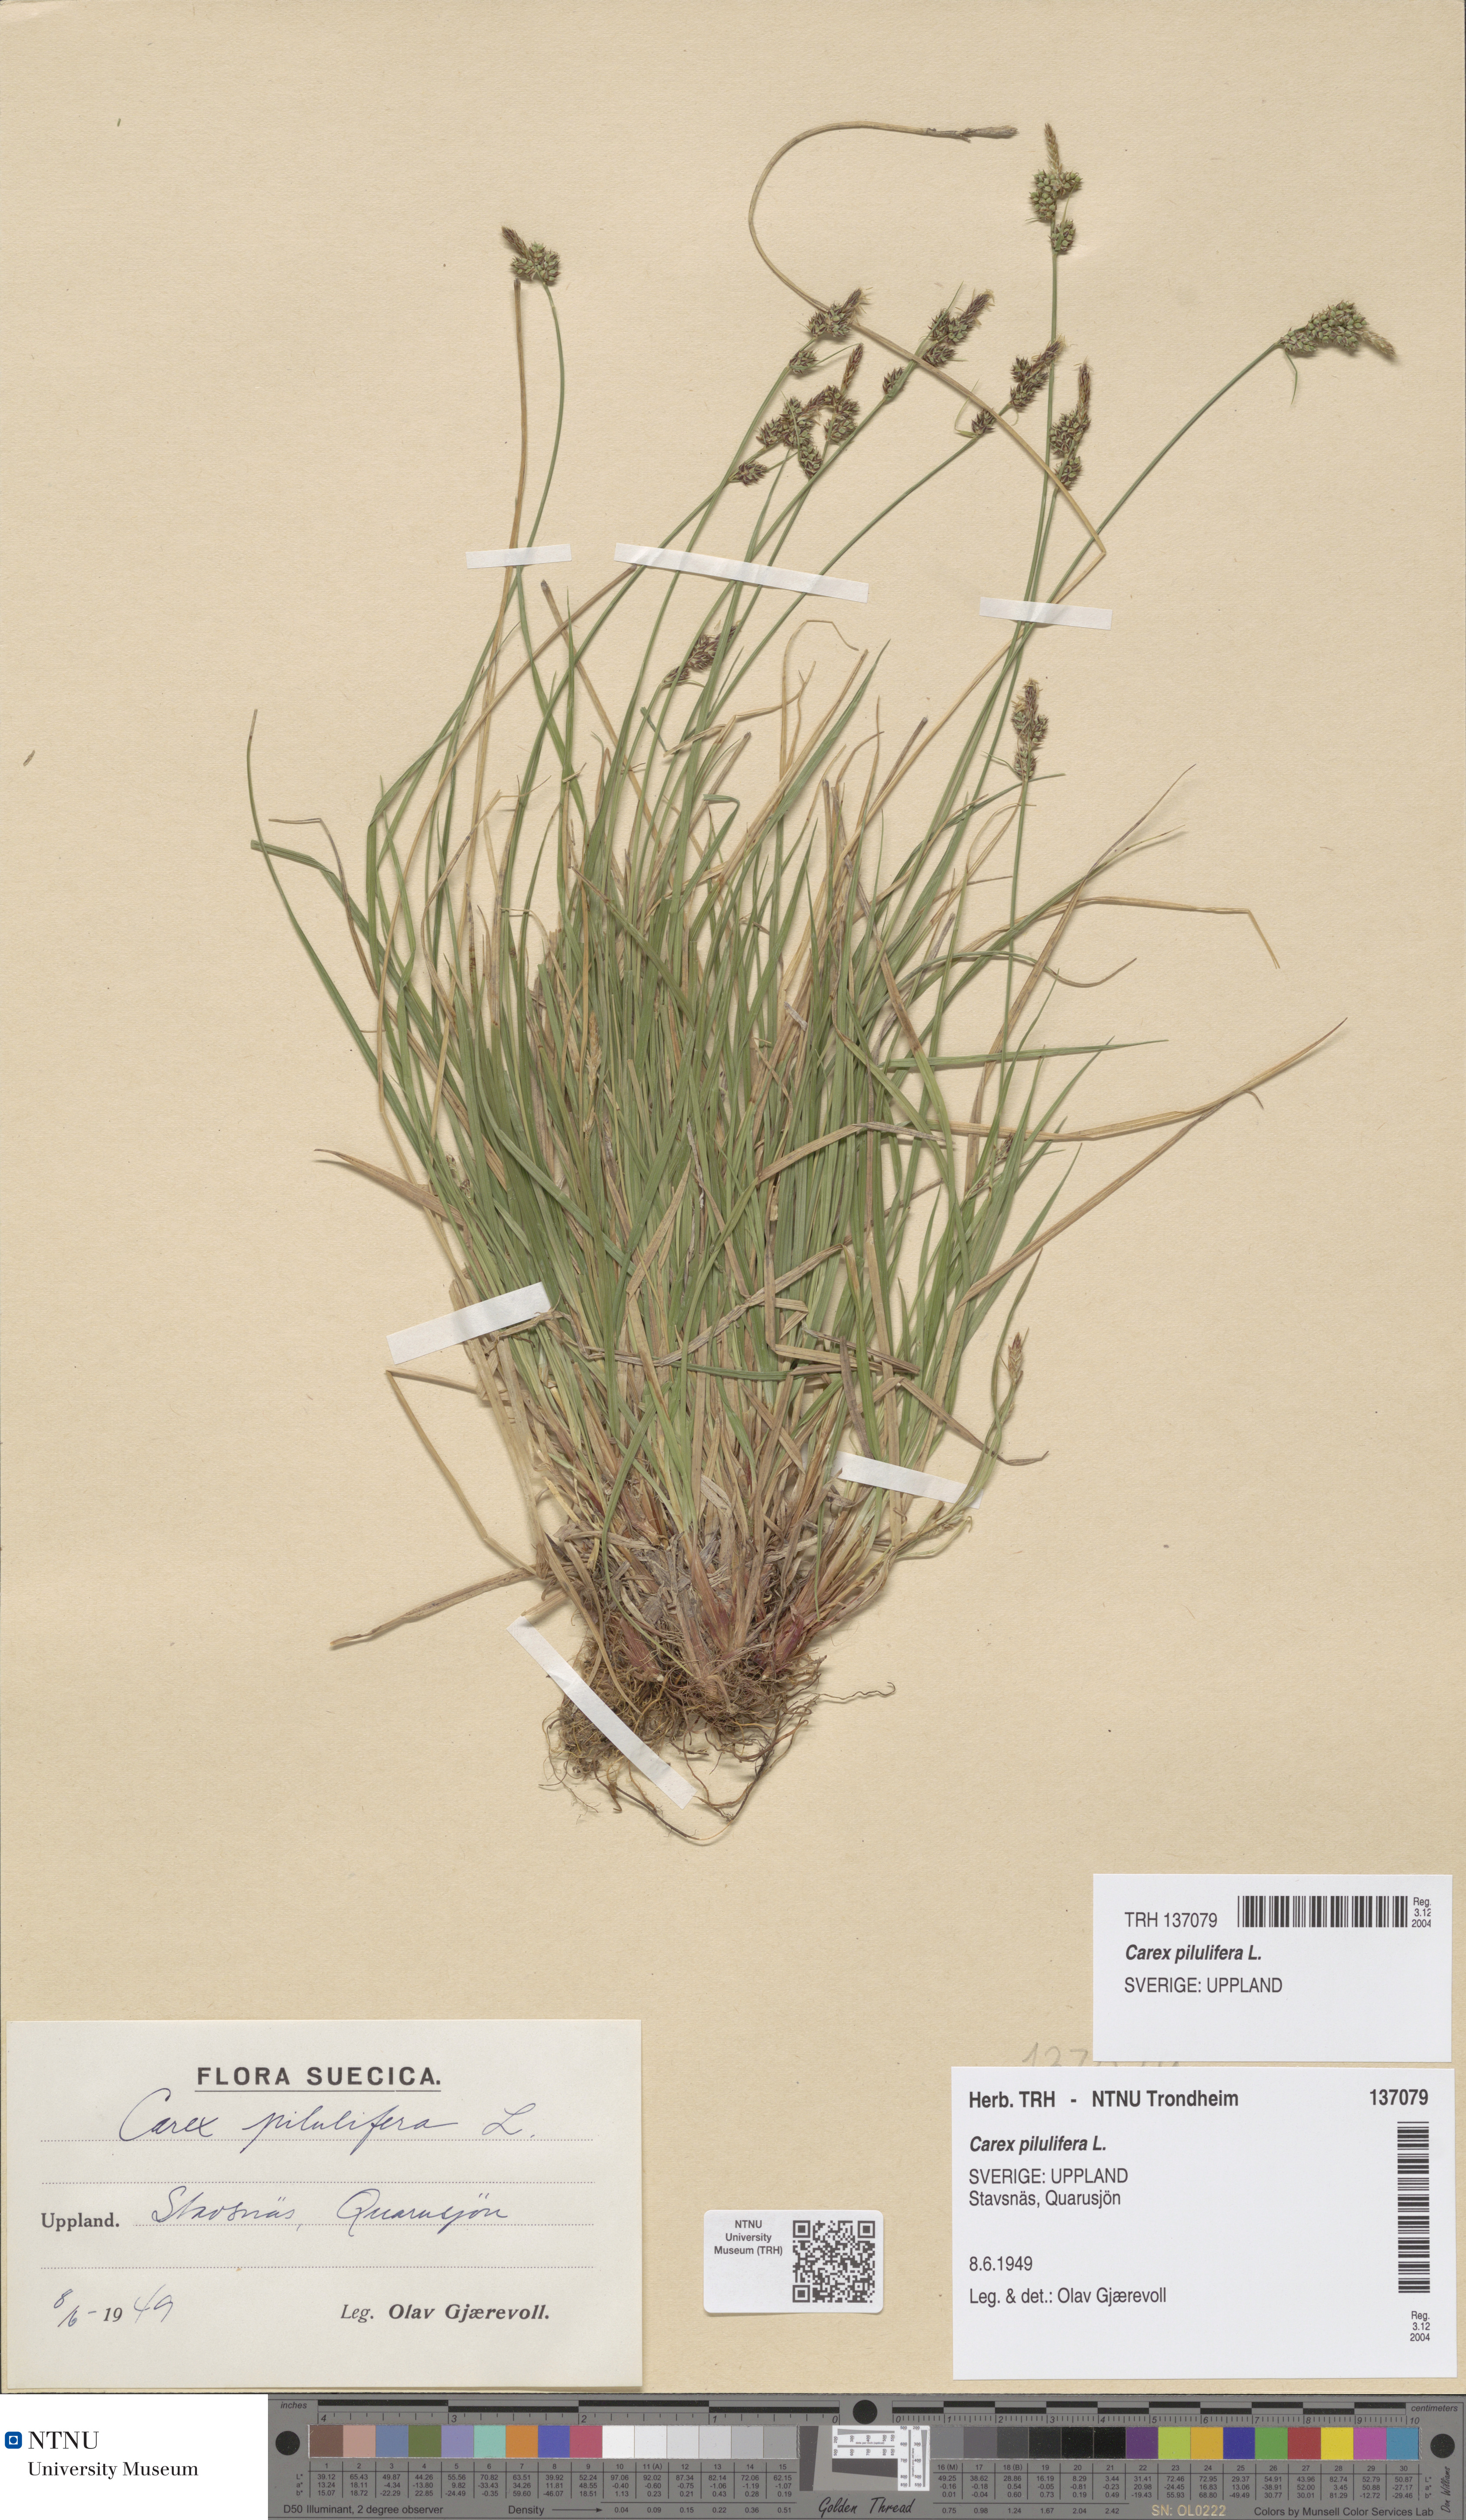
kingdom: Plantae
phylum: Tracheophyta
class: Liliopsida
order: Poales
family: Cyperaceae
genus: Carex
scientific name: Carex pilulifera
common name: Pill sedge
